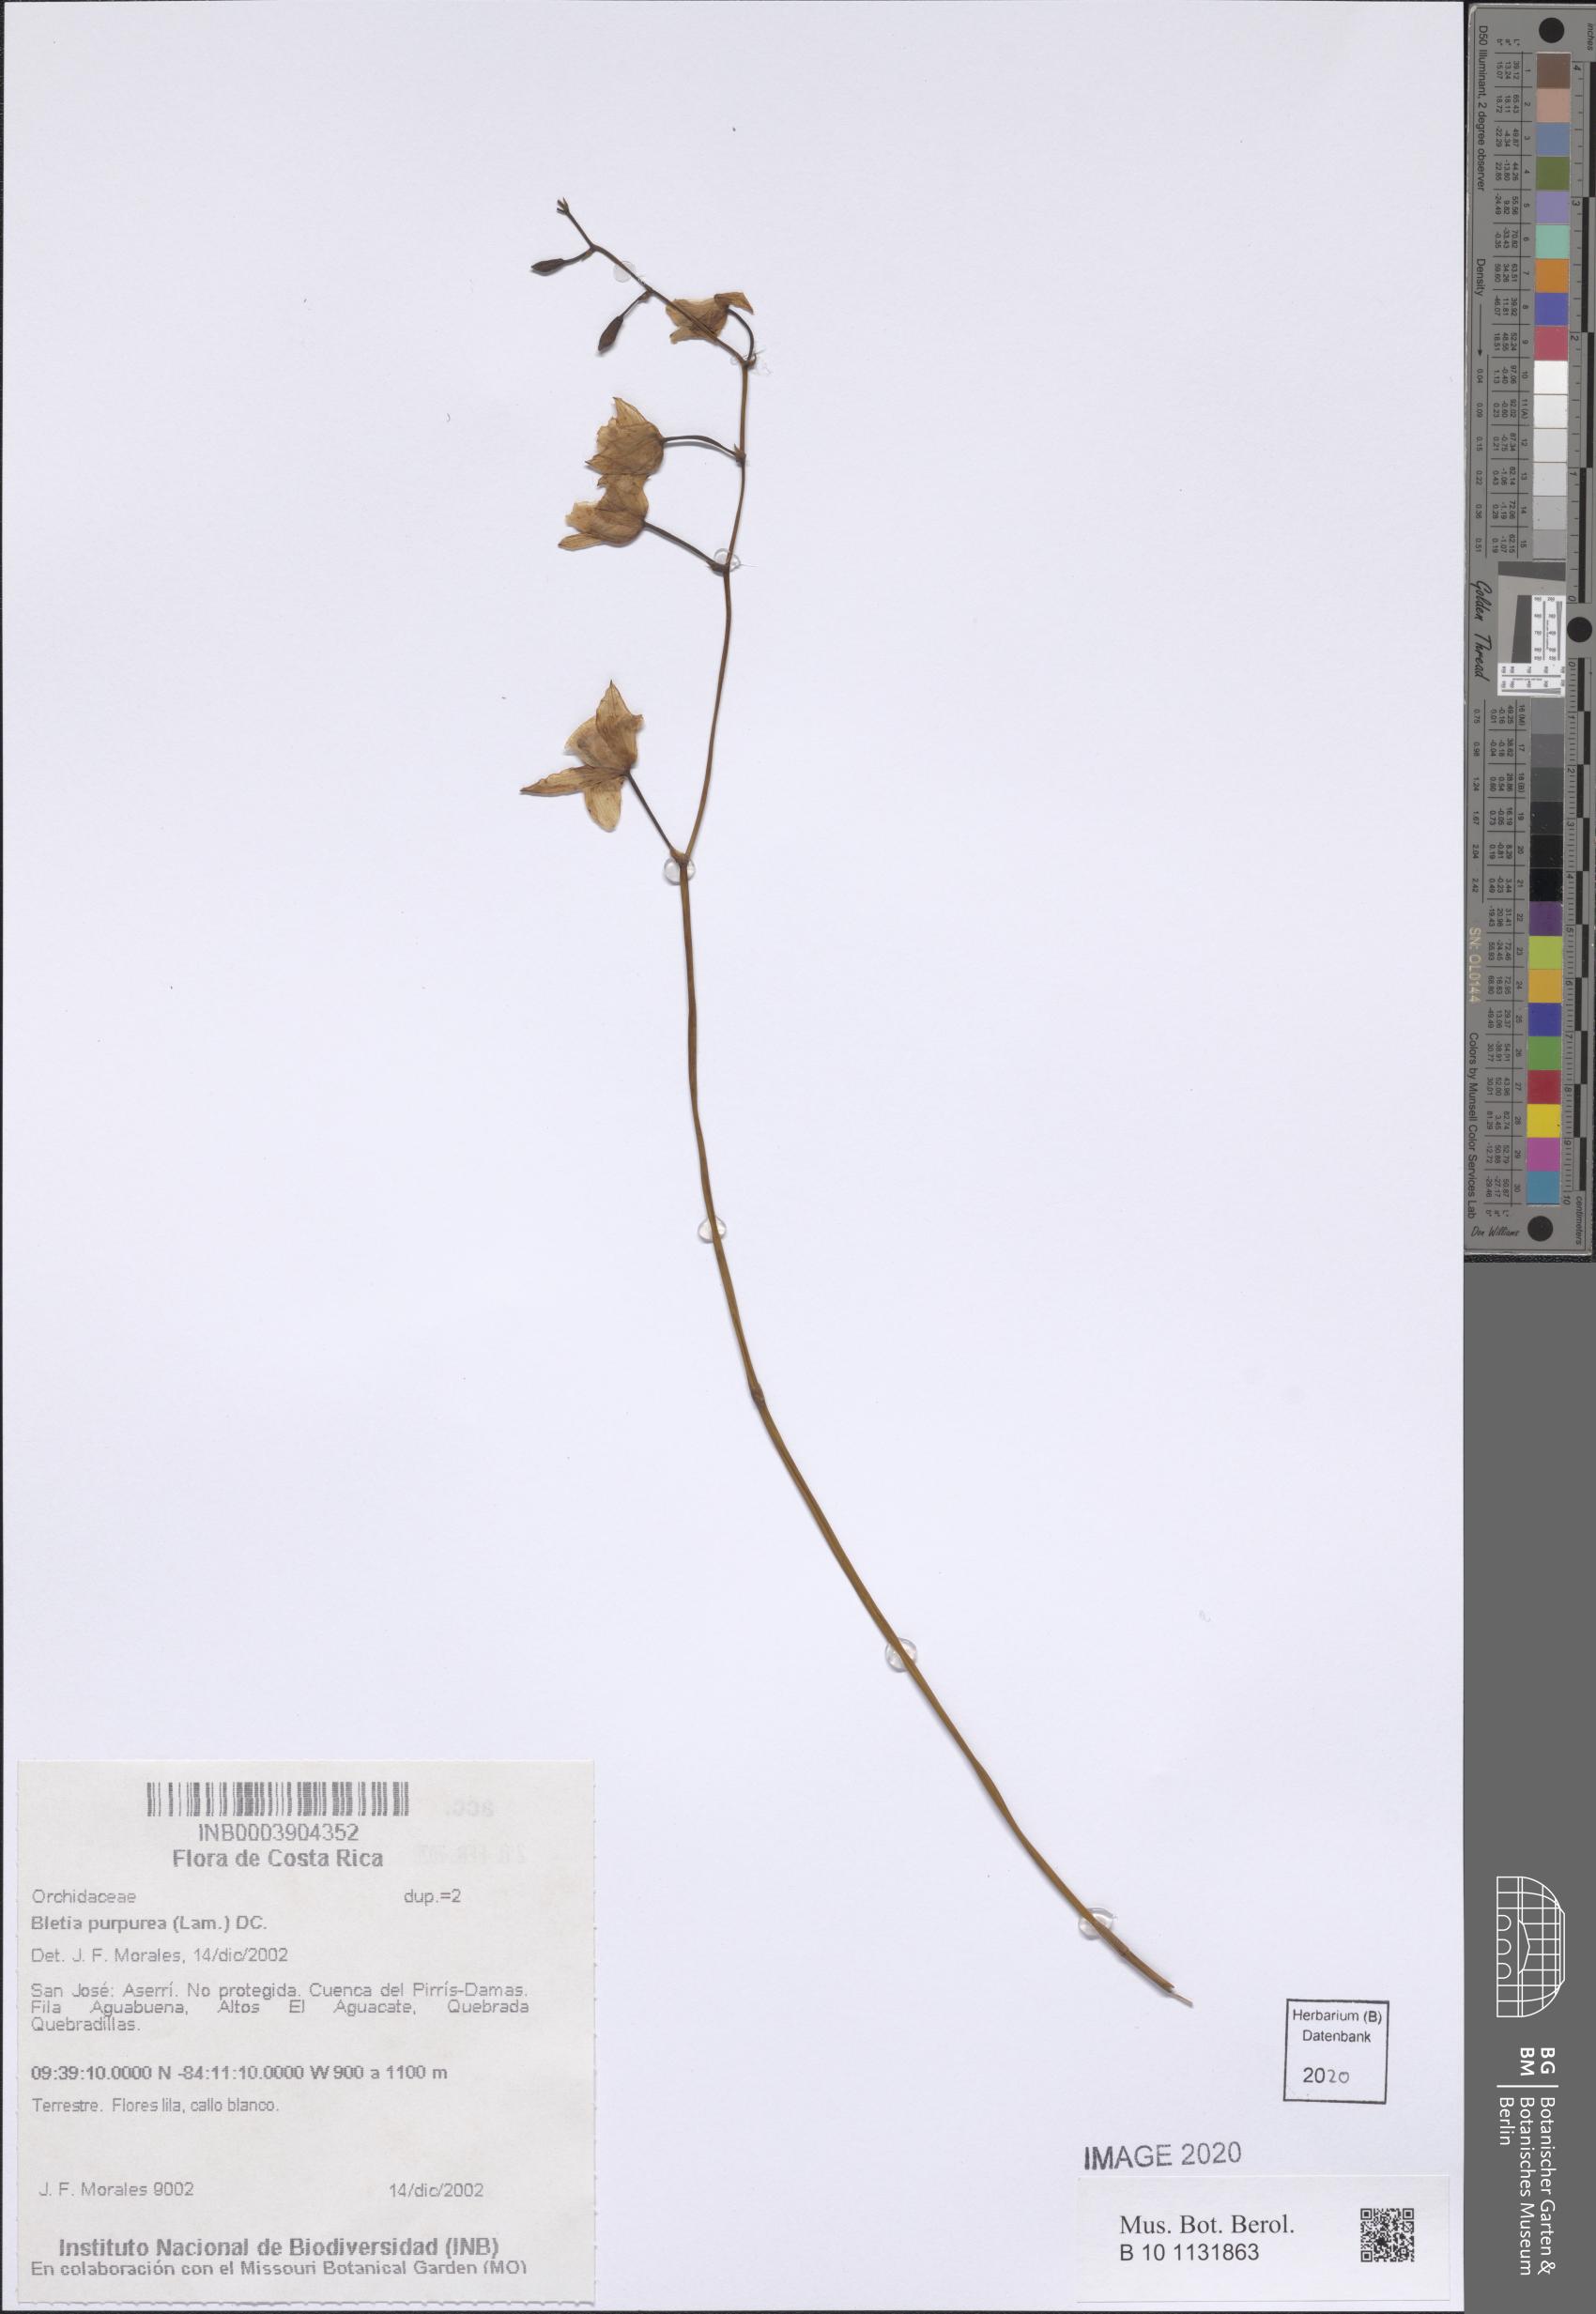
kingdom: Plantae
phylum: Tracheophyta
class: Liliopsida
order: Asparagales
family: Orchidaceae
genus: Bletia
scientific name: Bletia purpurea
